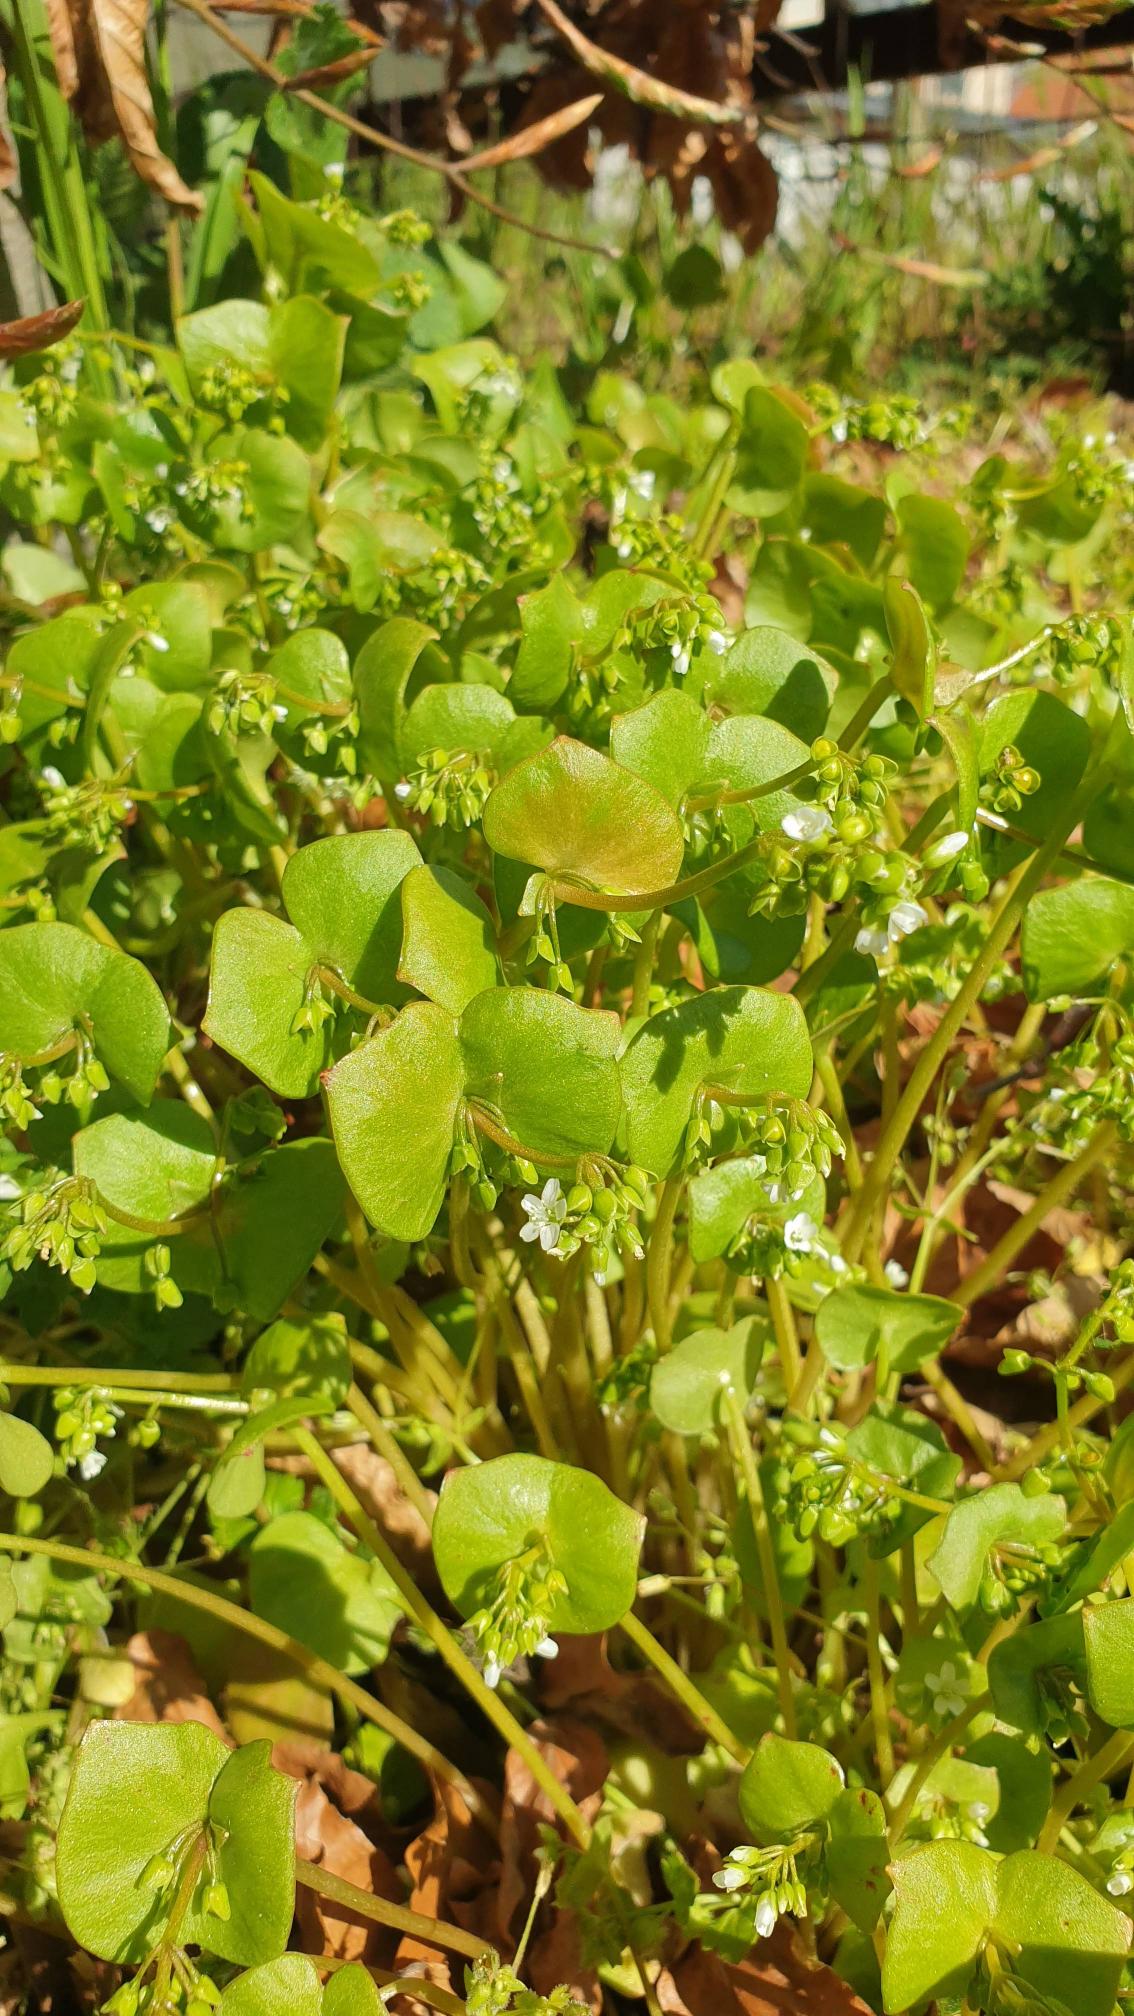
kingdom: Plantae
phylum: Tracheophyta
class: Magnoliopsida
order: Caryophyllales
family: Montiaceae
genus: Claytonia
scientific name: Claytonia perfoliata
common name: Spiselig vinterportulak
